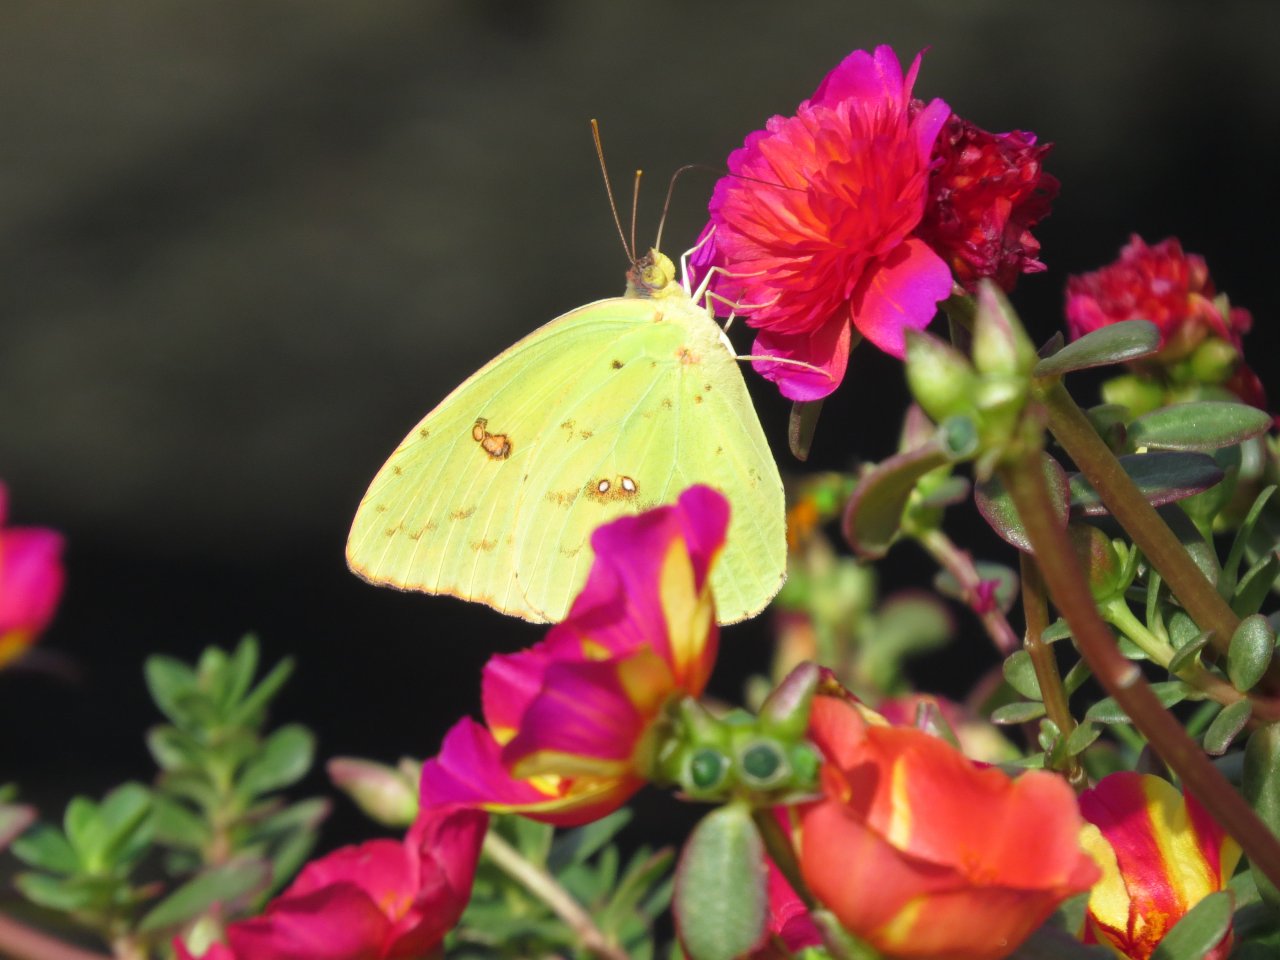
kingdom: Animalia
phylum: Arthropoda
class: Insecta
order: Lepidoptera
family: Pieridae
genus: Phoebis
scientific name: Phoebis sennae
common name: Cloudless Sulphur
